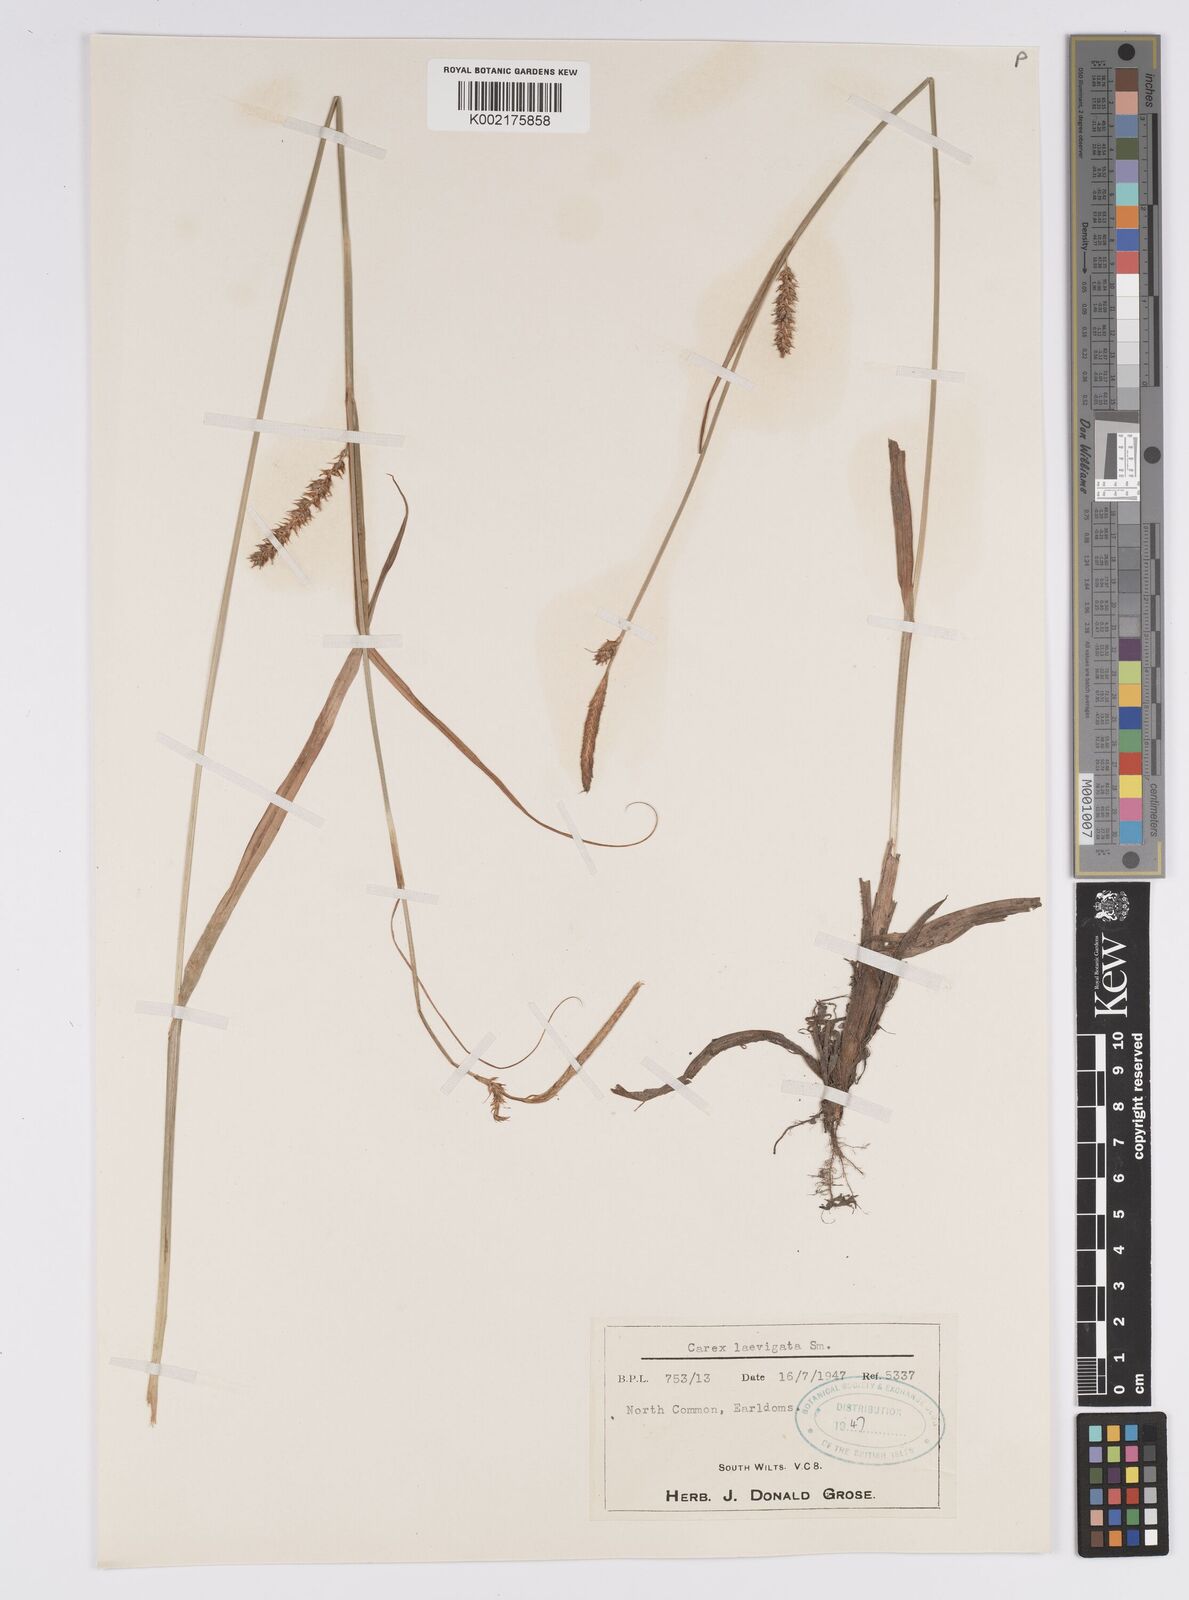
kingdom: Plantae
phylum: Tracheophyta
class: Liliopsida
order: Poales
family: Cyperaceae
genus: Carex
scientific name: Carex laevigata
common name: Smooth-stalked sedge
